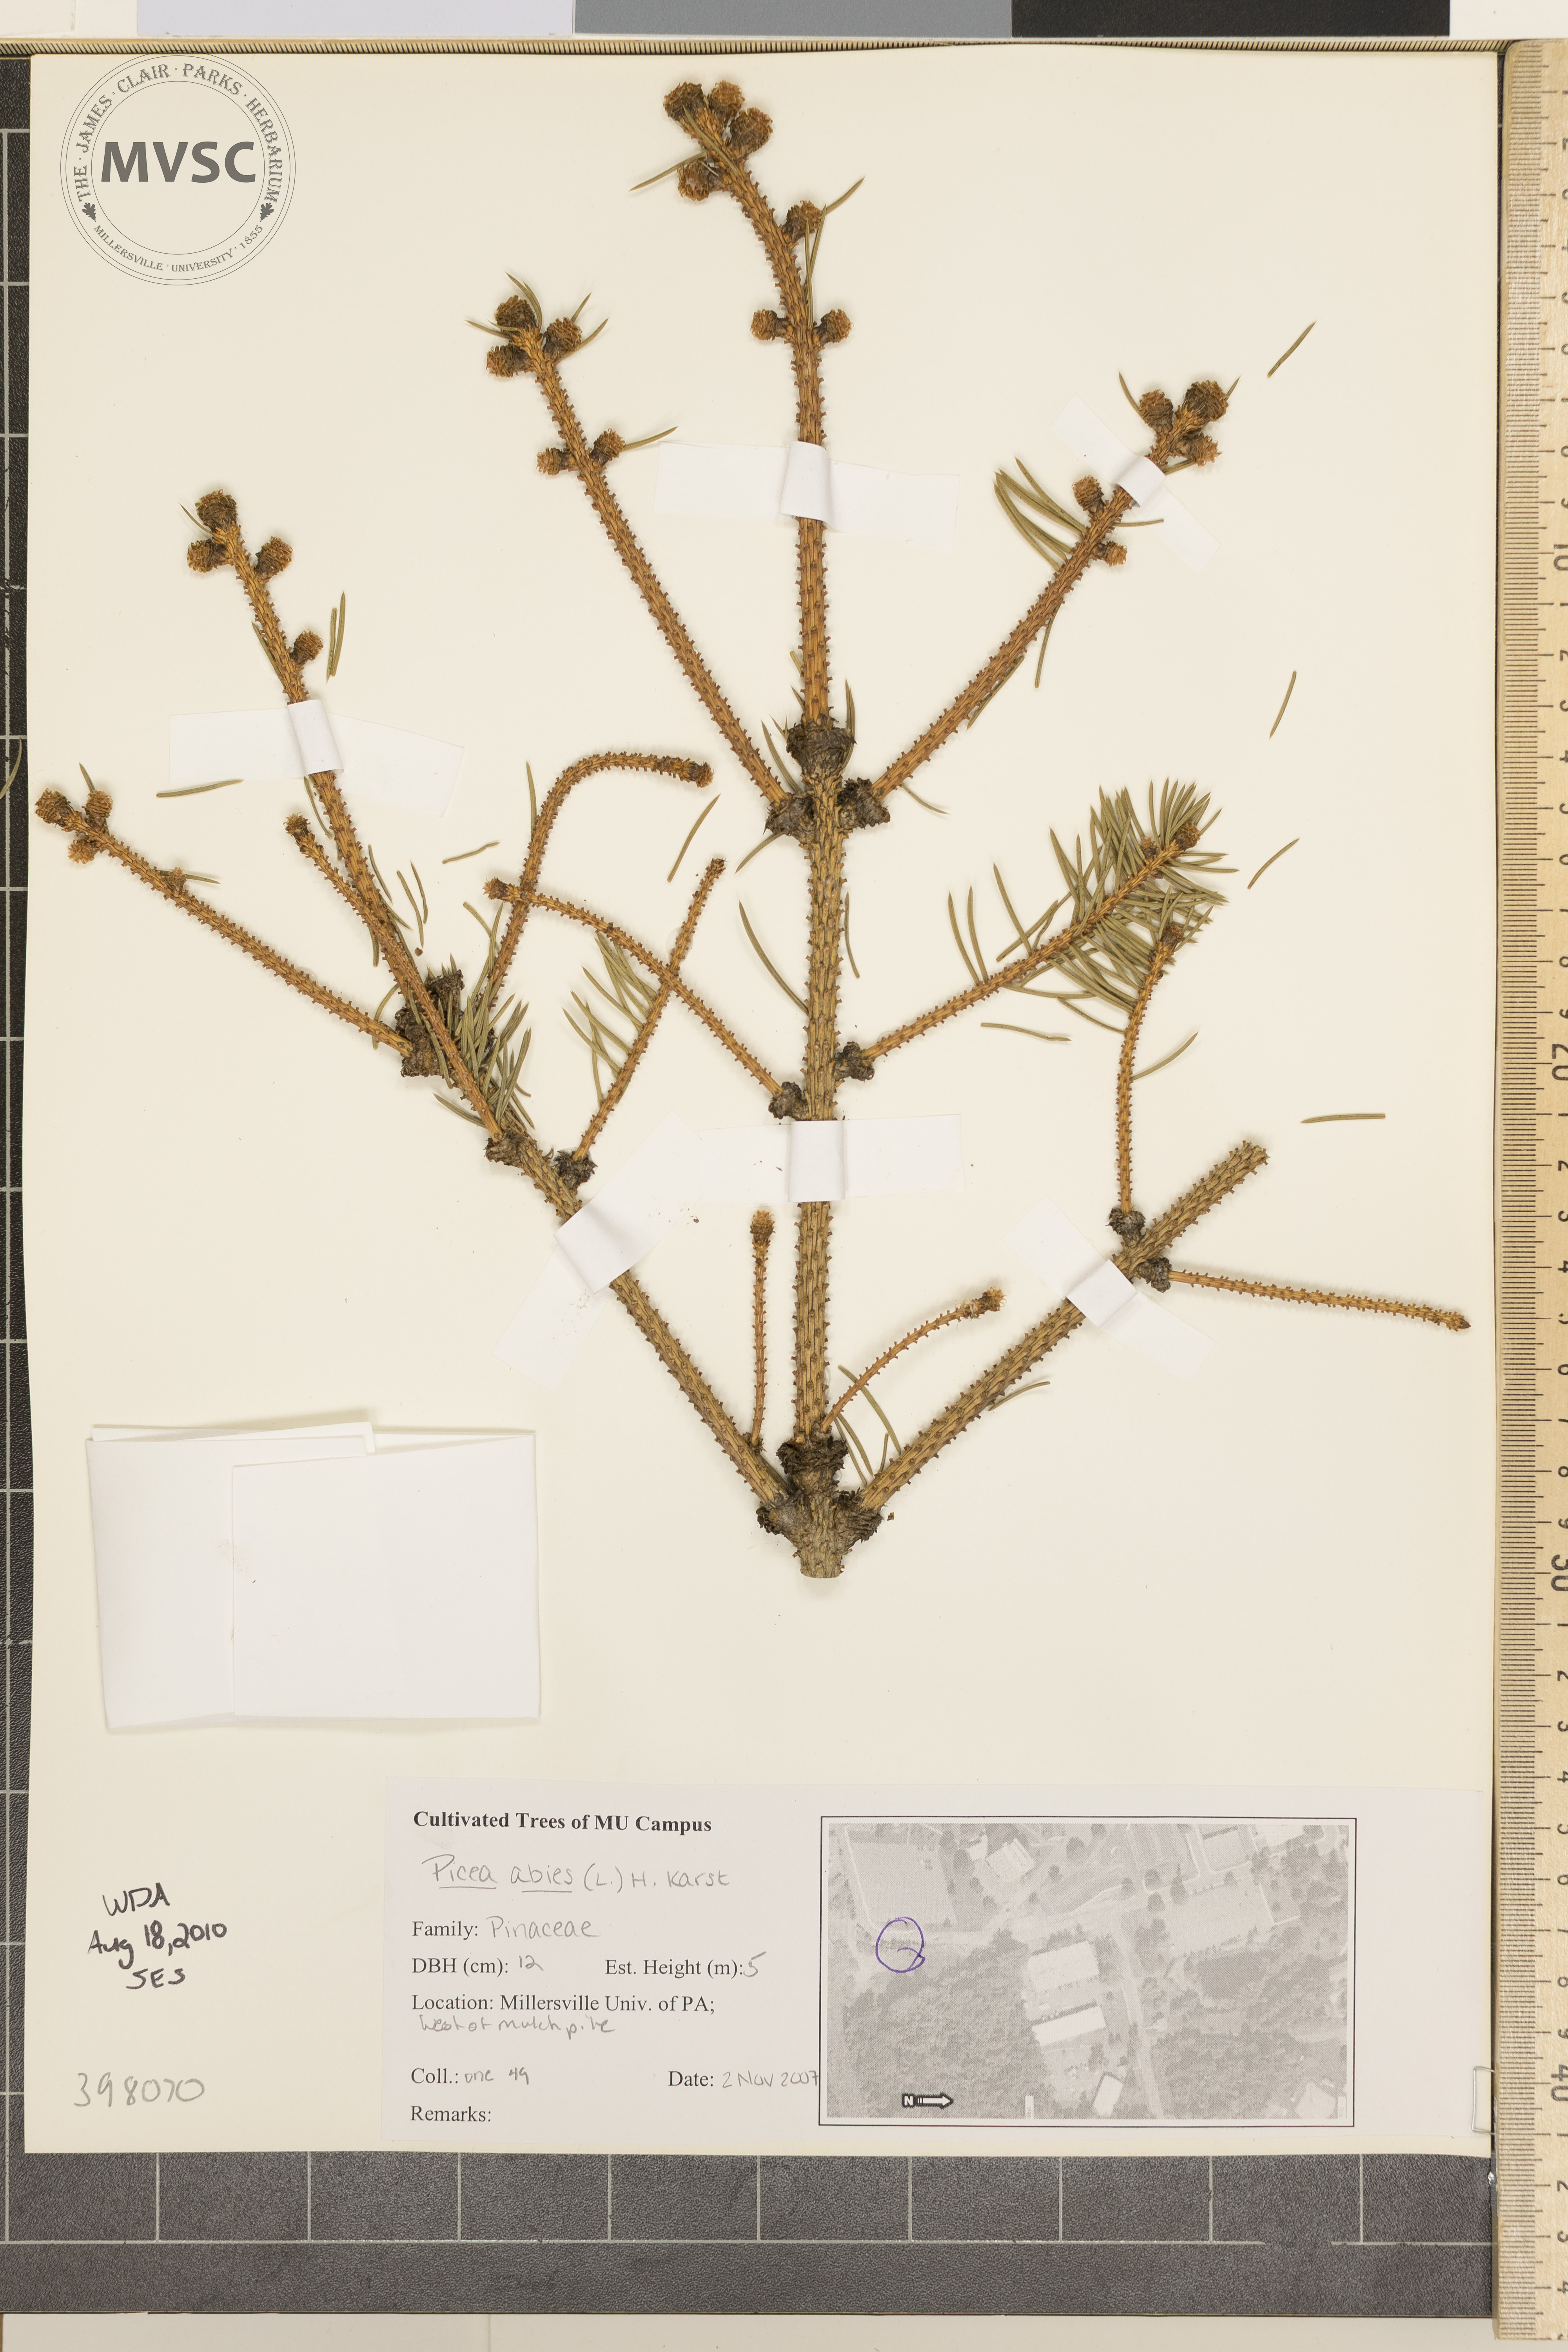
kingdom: Plantae
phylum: Tracheophyta
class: Pinopsida
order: Pinales
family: Pinaceae
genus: Picea
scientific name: Picea abies
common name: Norway spruce
